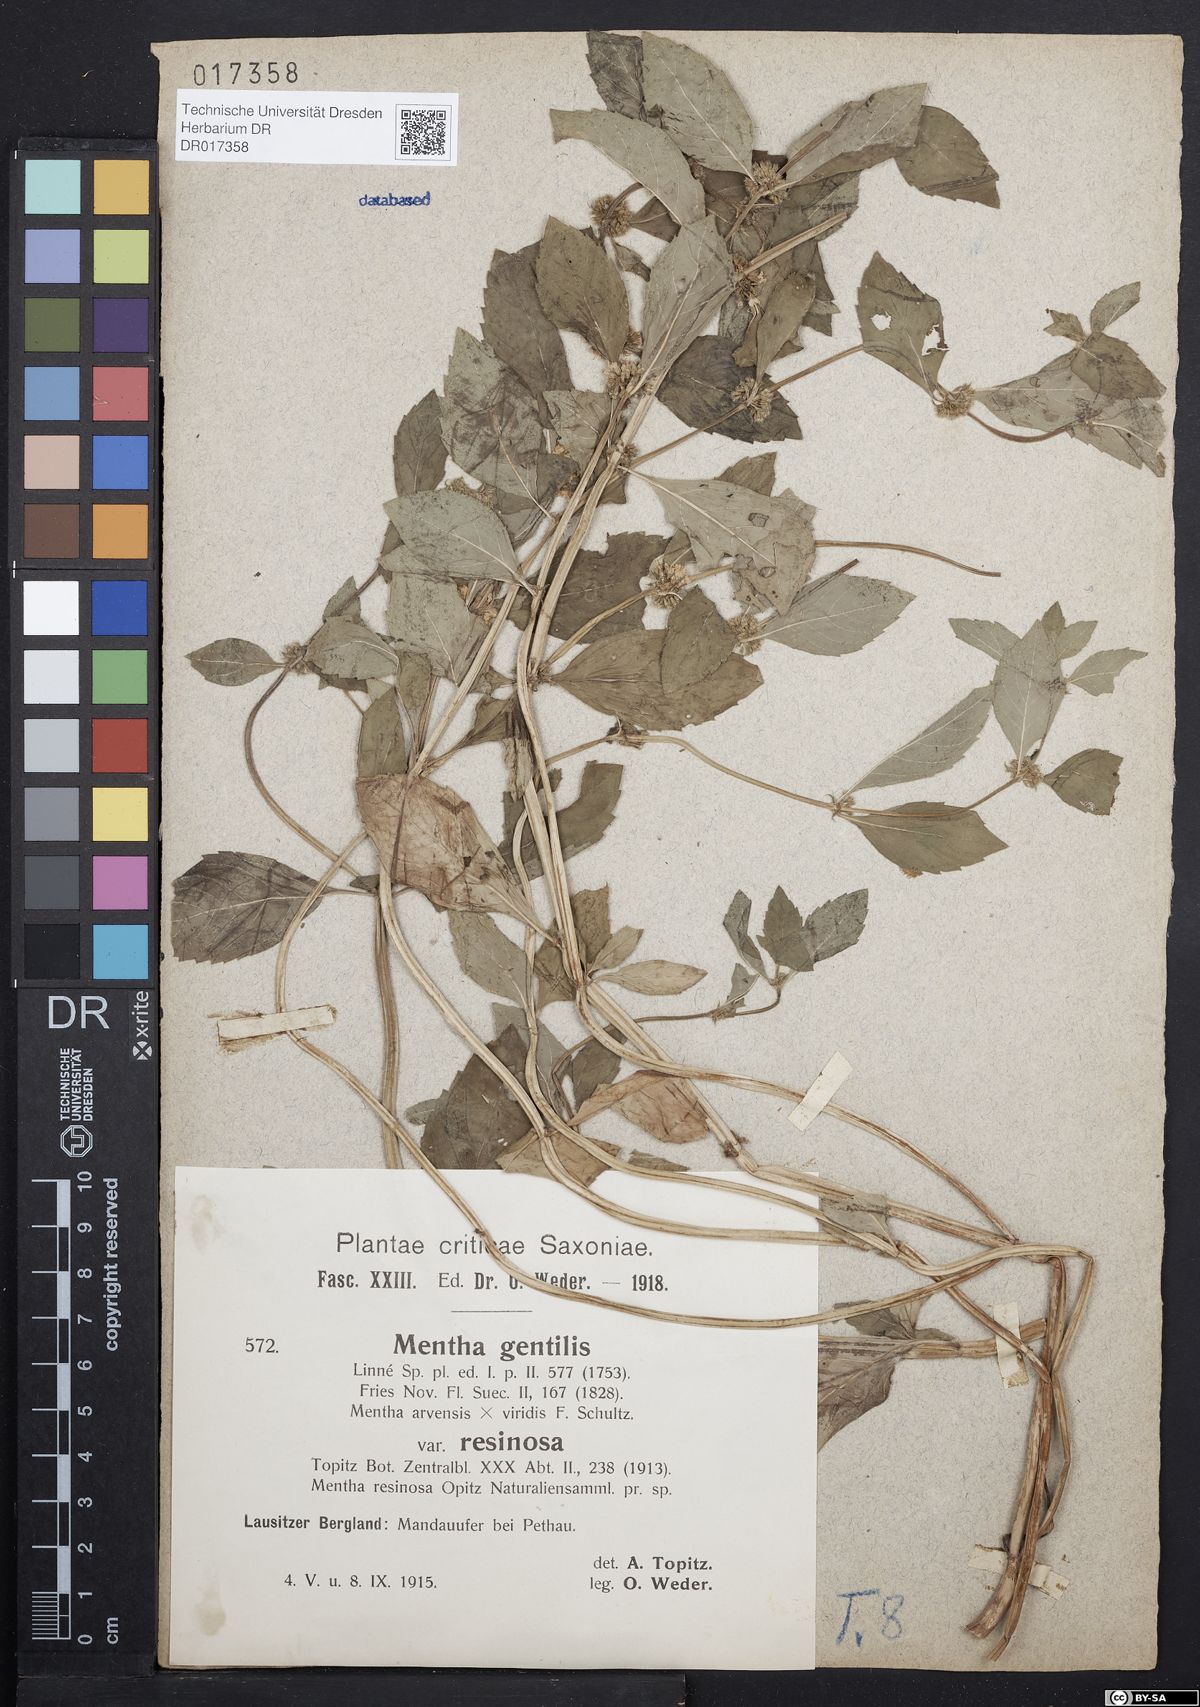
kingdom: Plantae
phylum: Tracheophyta
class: Magnoliopsida
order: Lamiales
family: Lamiaceae
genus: Mentha
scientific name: Mentha gracilis
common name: Bushy mint
